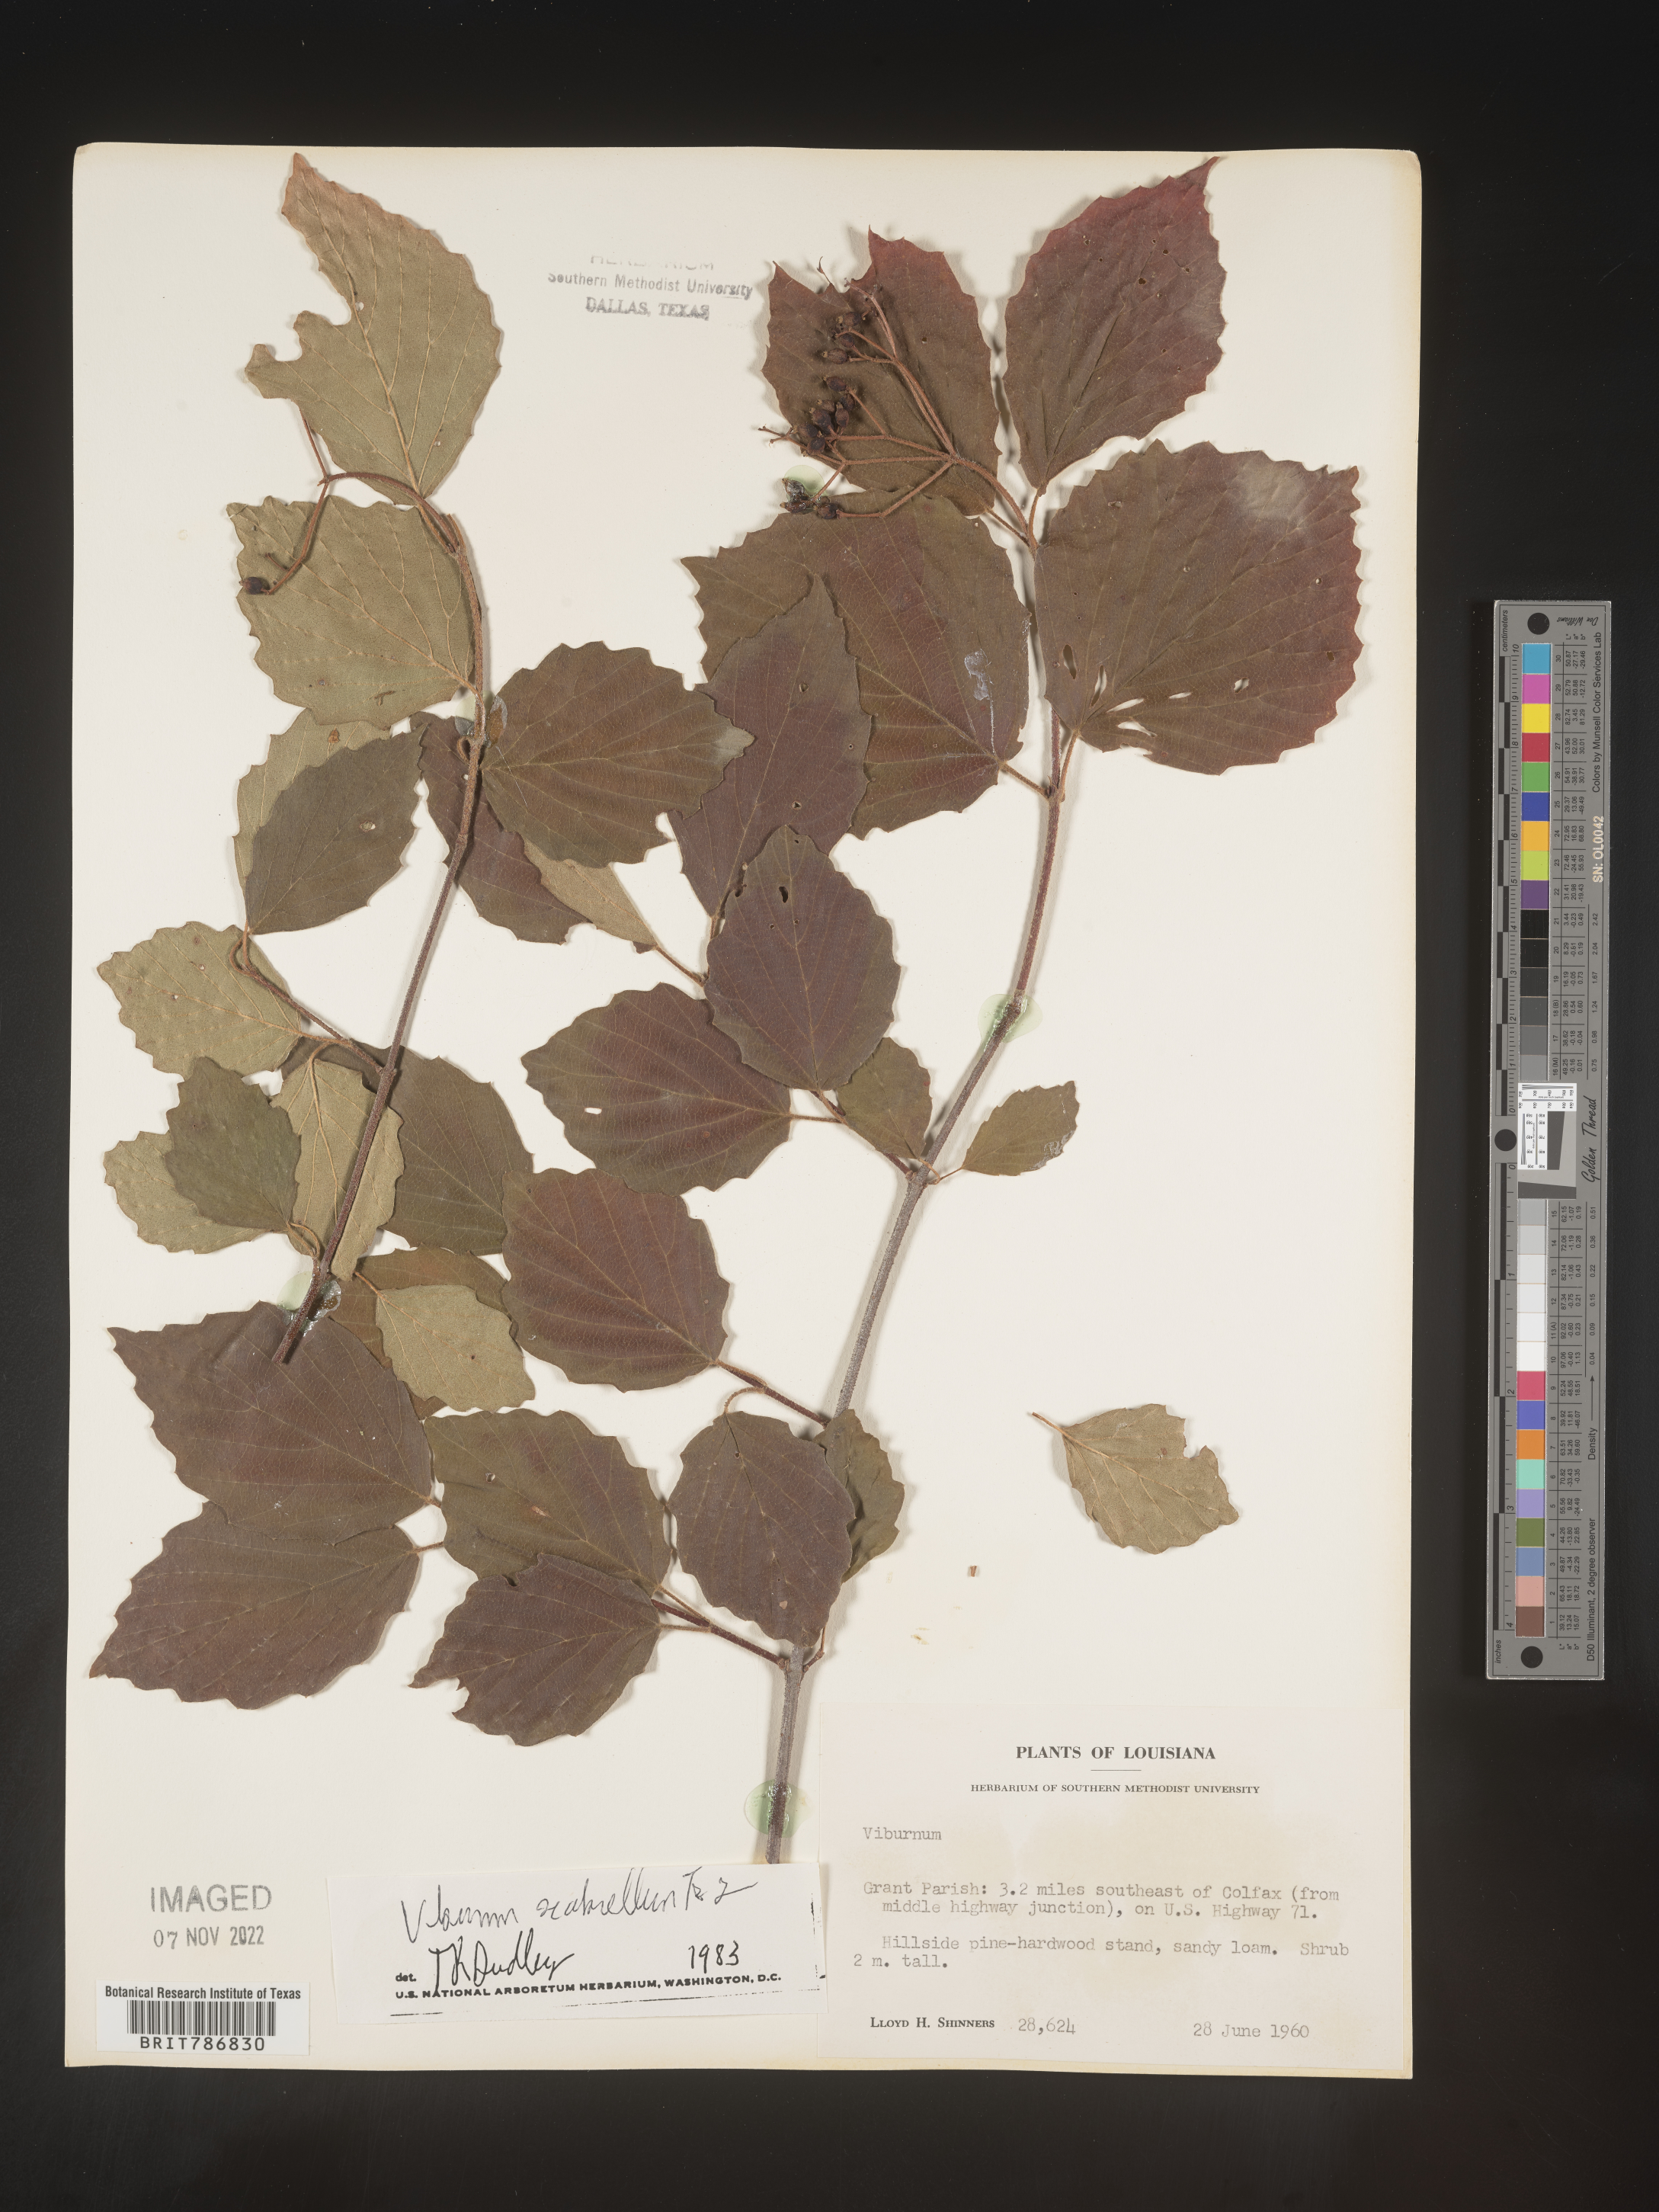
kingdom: Plantae
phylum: Tracheophyta
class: Magnoliopsida
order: Dipsacales
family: Viburnaceae
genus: Viburnum
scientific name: Viburnum nudum
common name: Possum haw
